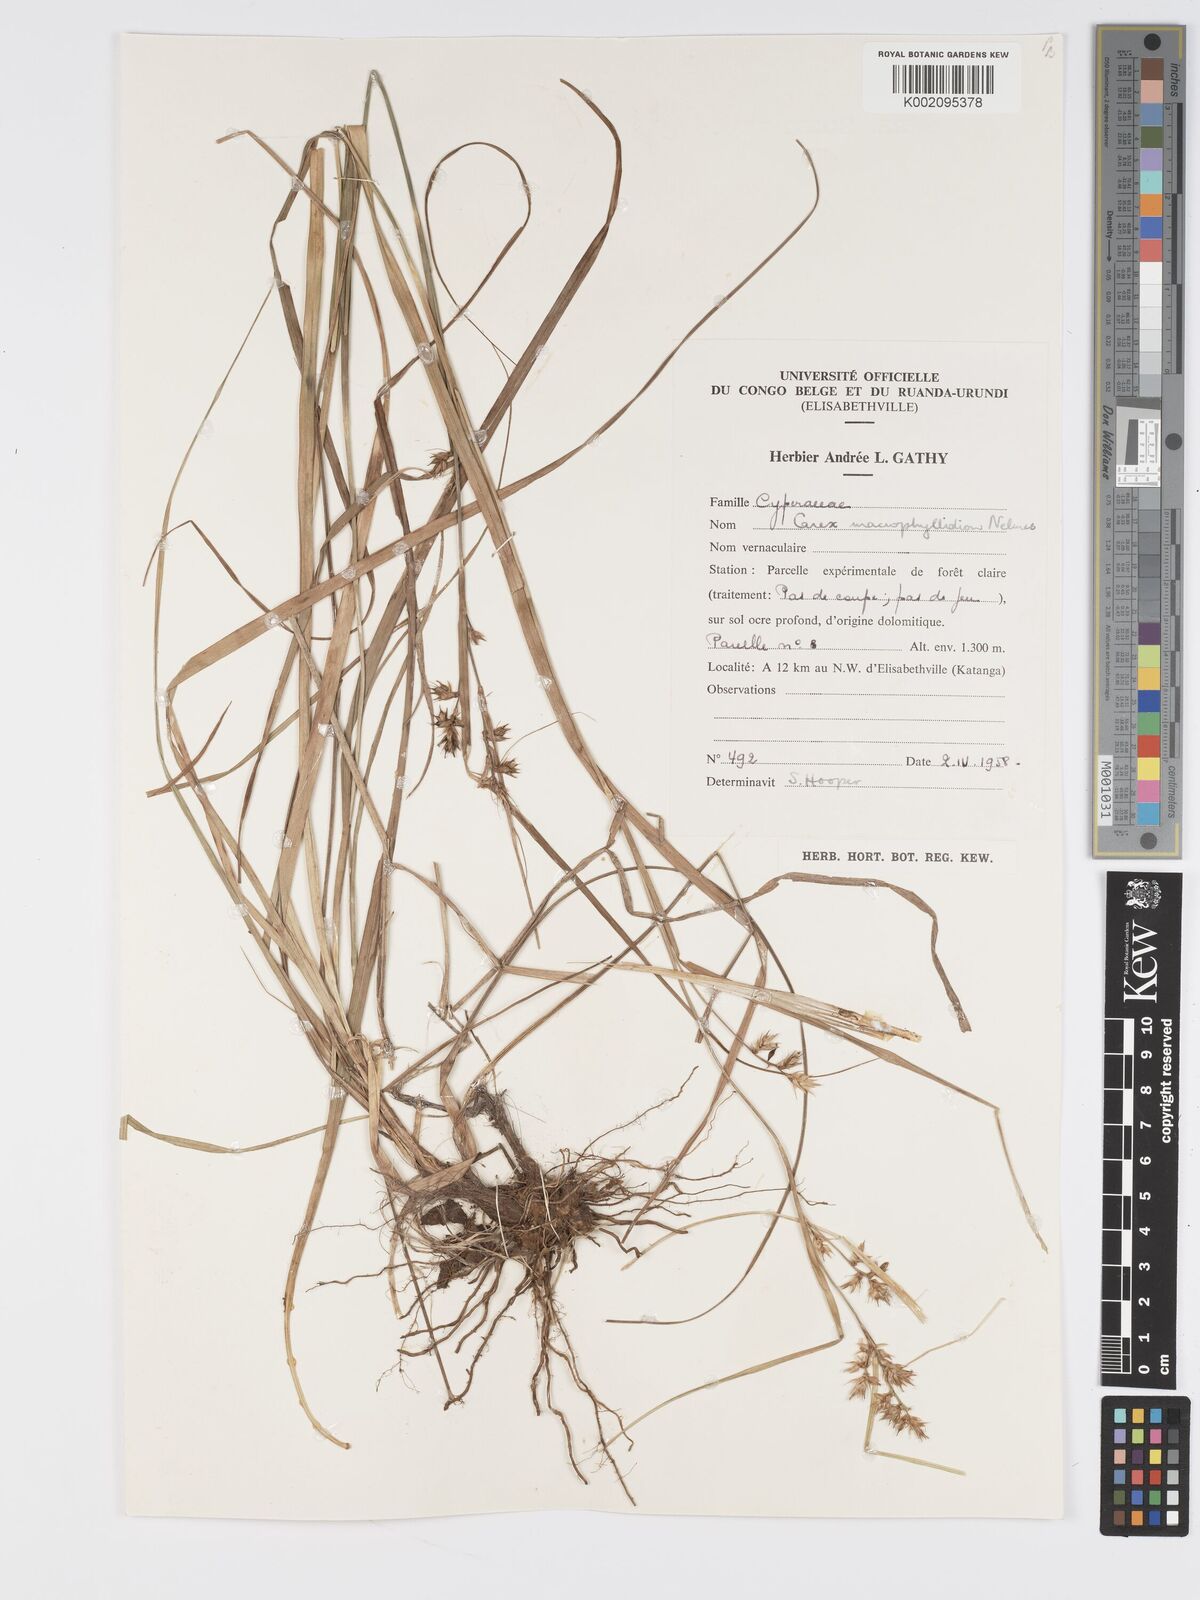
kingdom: Plantae
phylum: Tracheophyta
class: Liliopsida
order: Poales
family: Cyperaceae
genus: Carex
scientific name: Carex macrophyllidion
